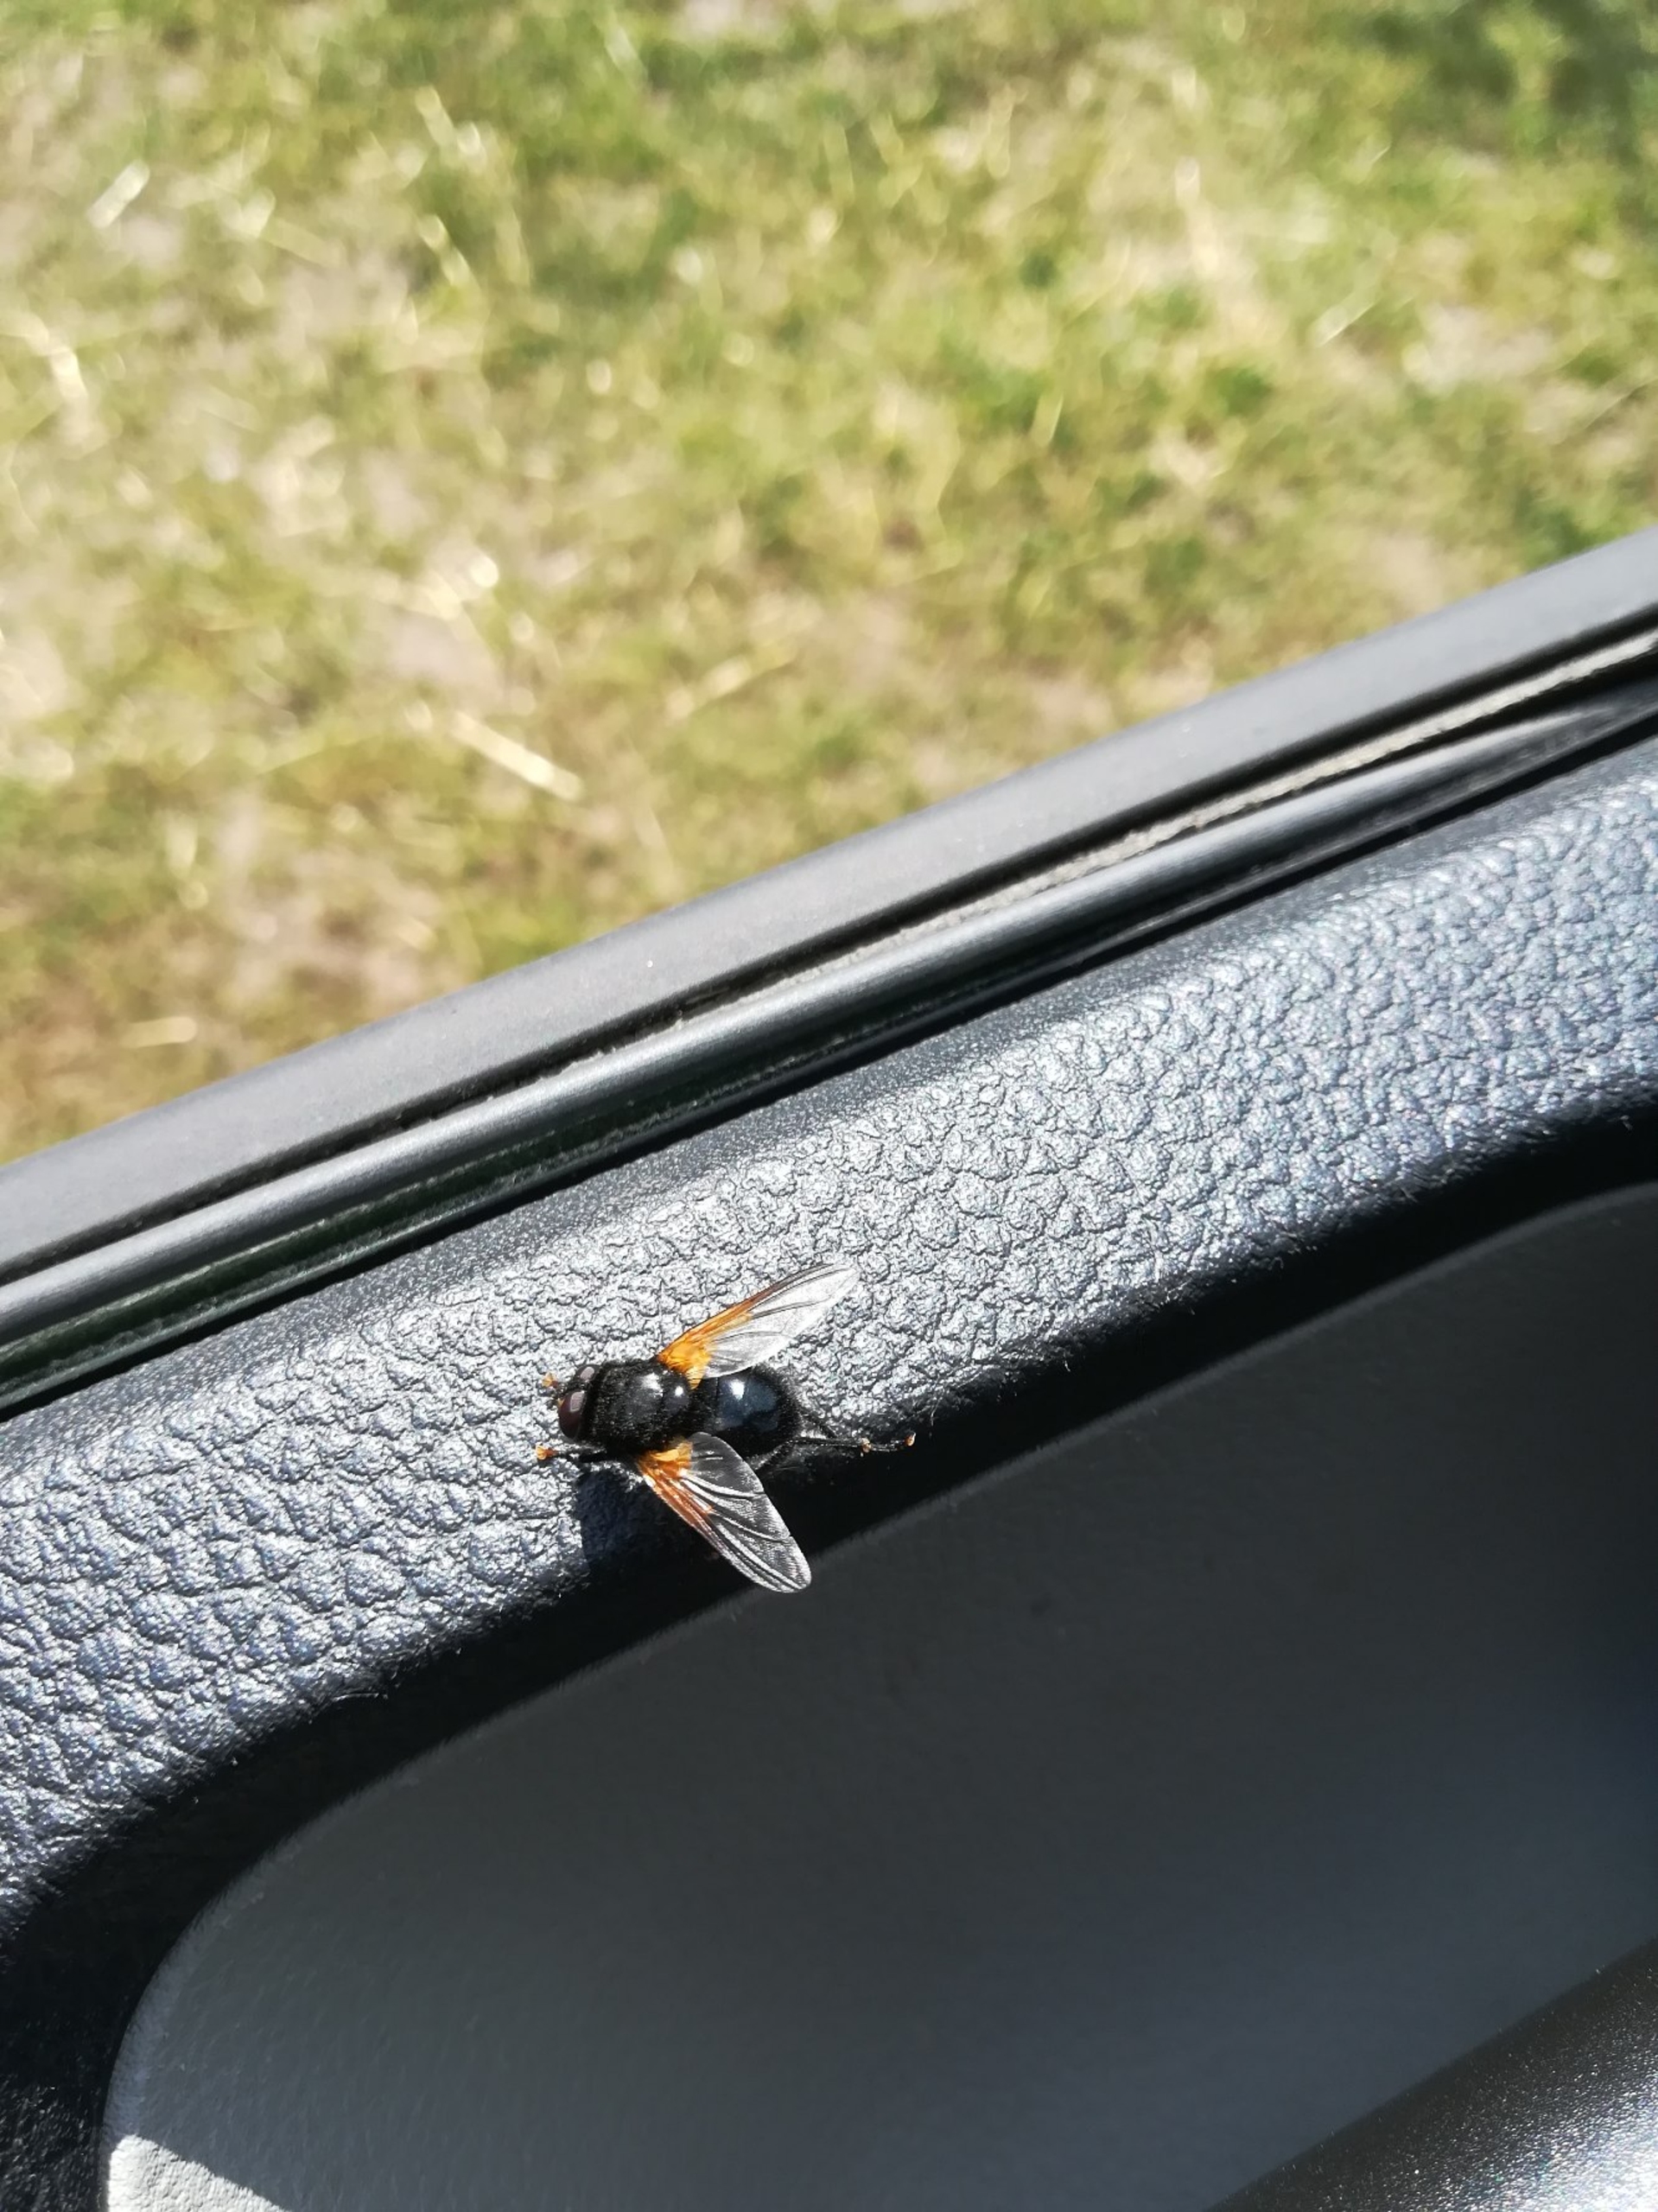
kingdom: Animalia
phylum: Arthropoda
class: Insecta
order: Diptera
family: Muscidae
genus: Mesembrina
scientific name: Mesembrina meridiana
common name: Gulvinget flue
